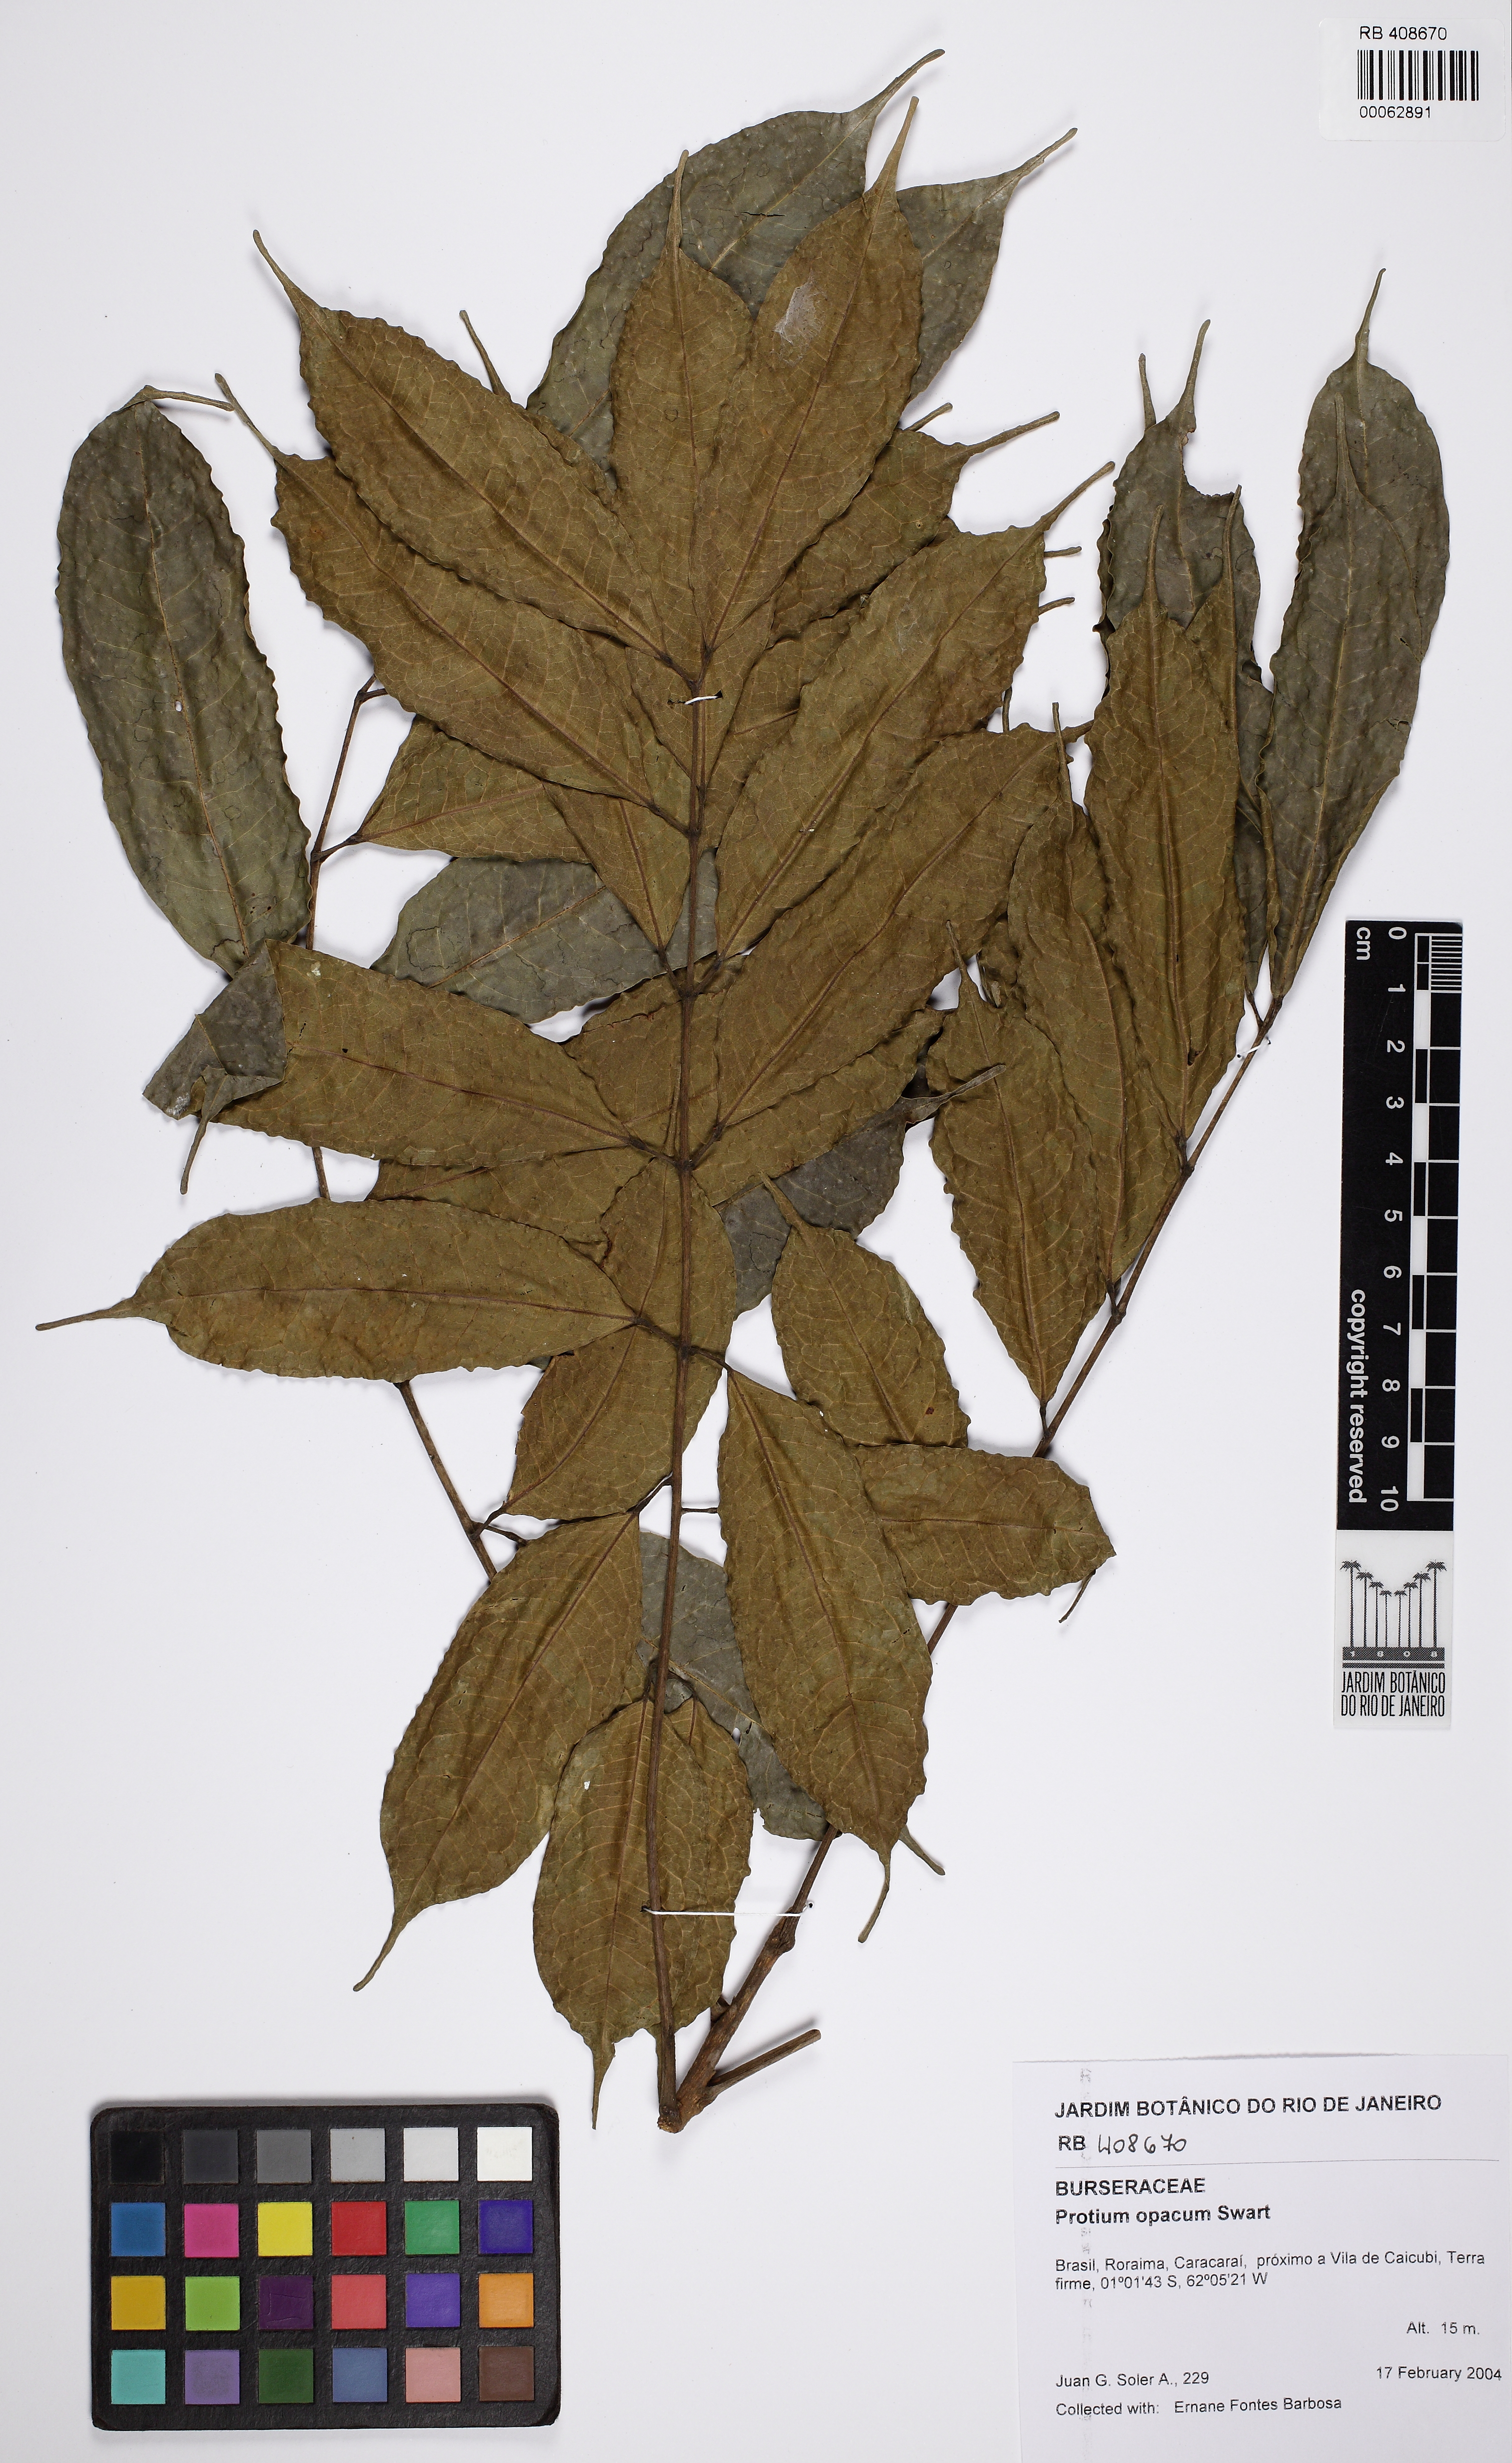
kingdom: Plantae
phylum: Tracheophyta
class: Magnoliopsida
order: Sapindales
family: Burseraceae
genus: Protium
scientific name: Protium opacum
